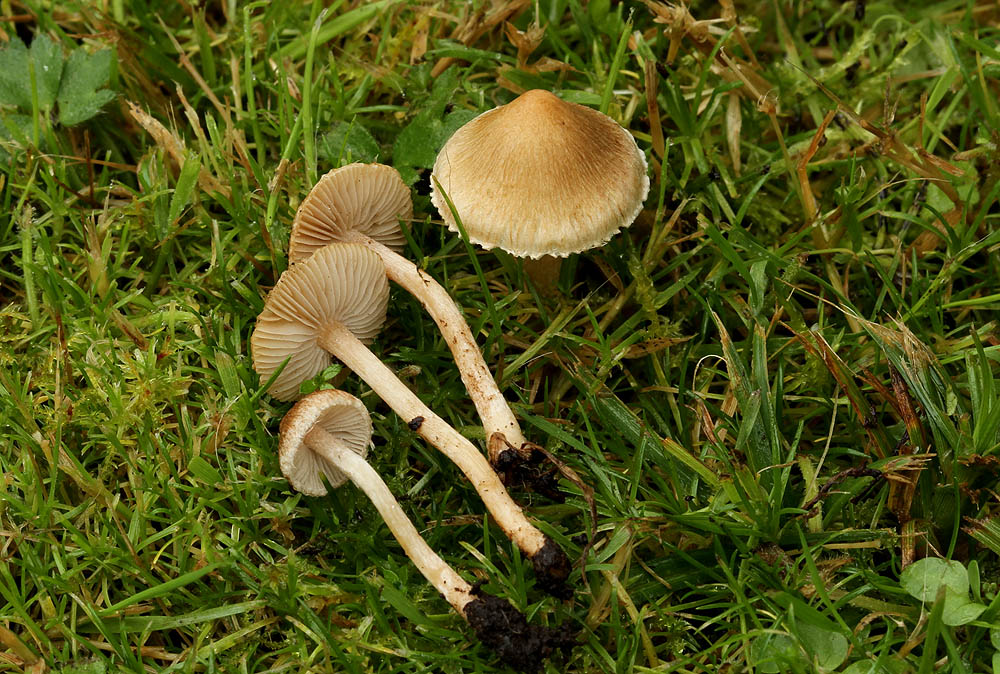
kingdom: Fungi
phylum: Basidiomycota
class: Agaricomycetes
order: Agaricales
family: Inocybaceae
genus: Inocybe
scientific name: Inocybe
